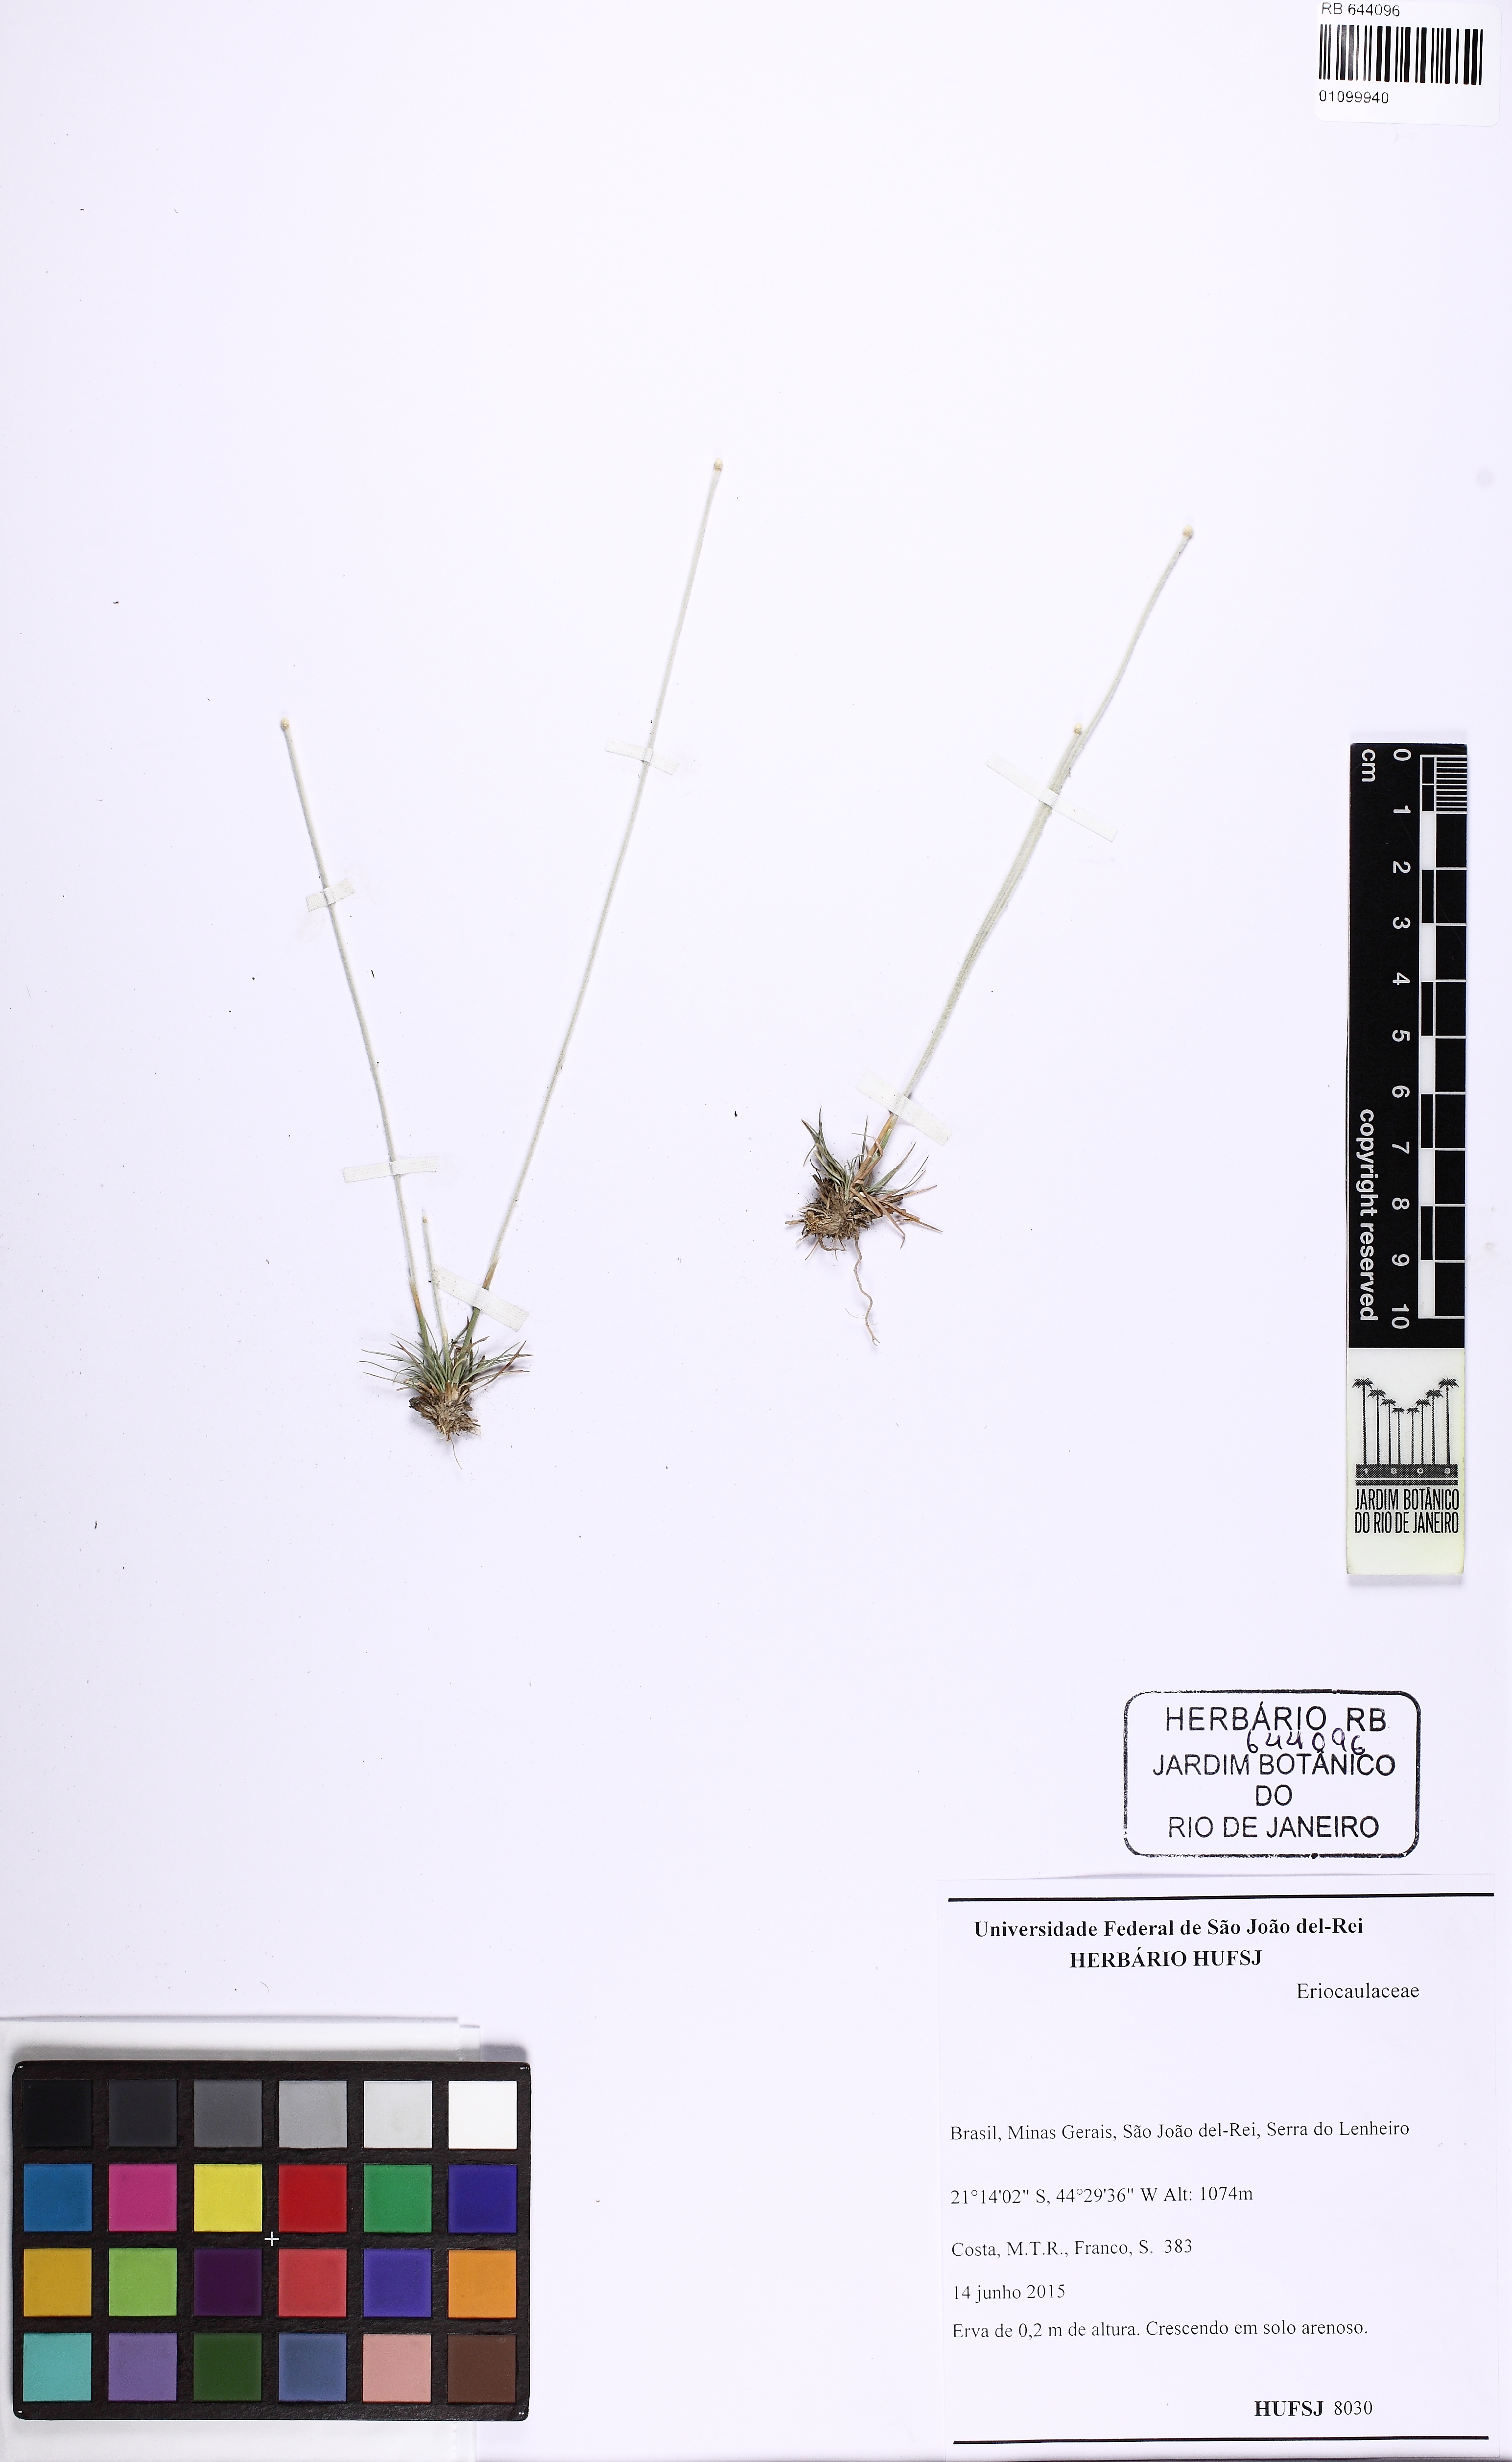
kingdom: Plantae
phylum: Tracheophyta
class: Liliopsida
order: Poales
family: Eriocaulaceae
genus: Leiothrix
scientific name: Leiothrix
